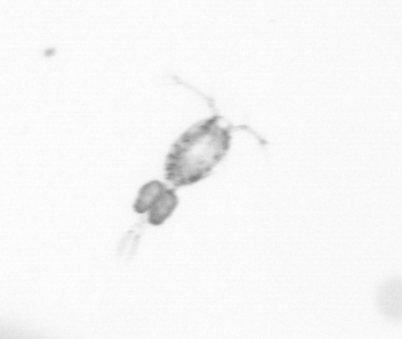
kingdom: Animalia
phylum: Arthropoda
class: Copepoda
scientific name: Copepoda
